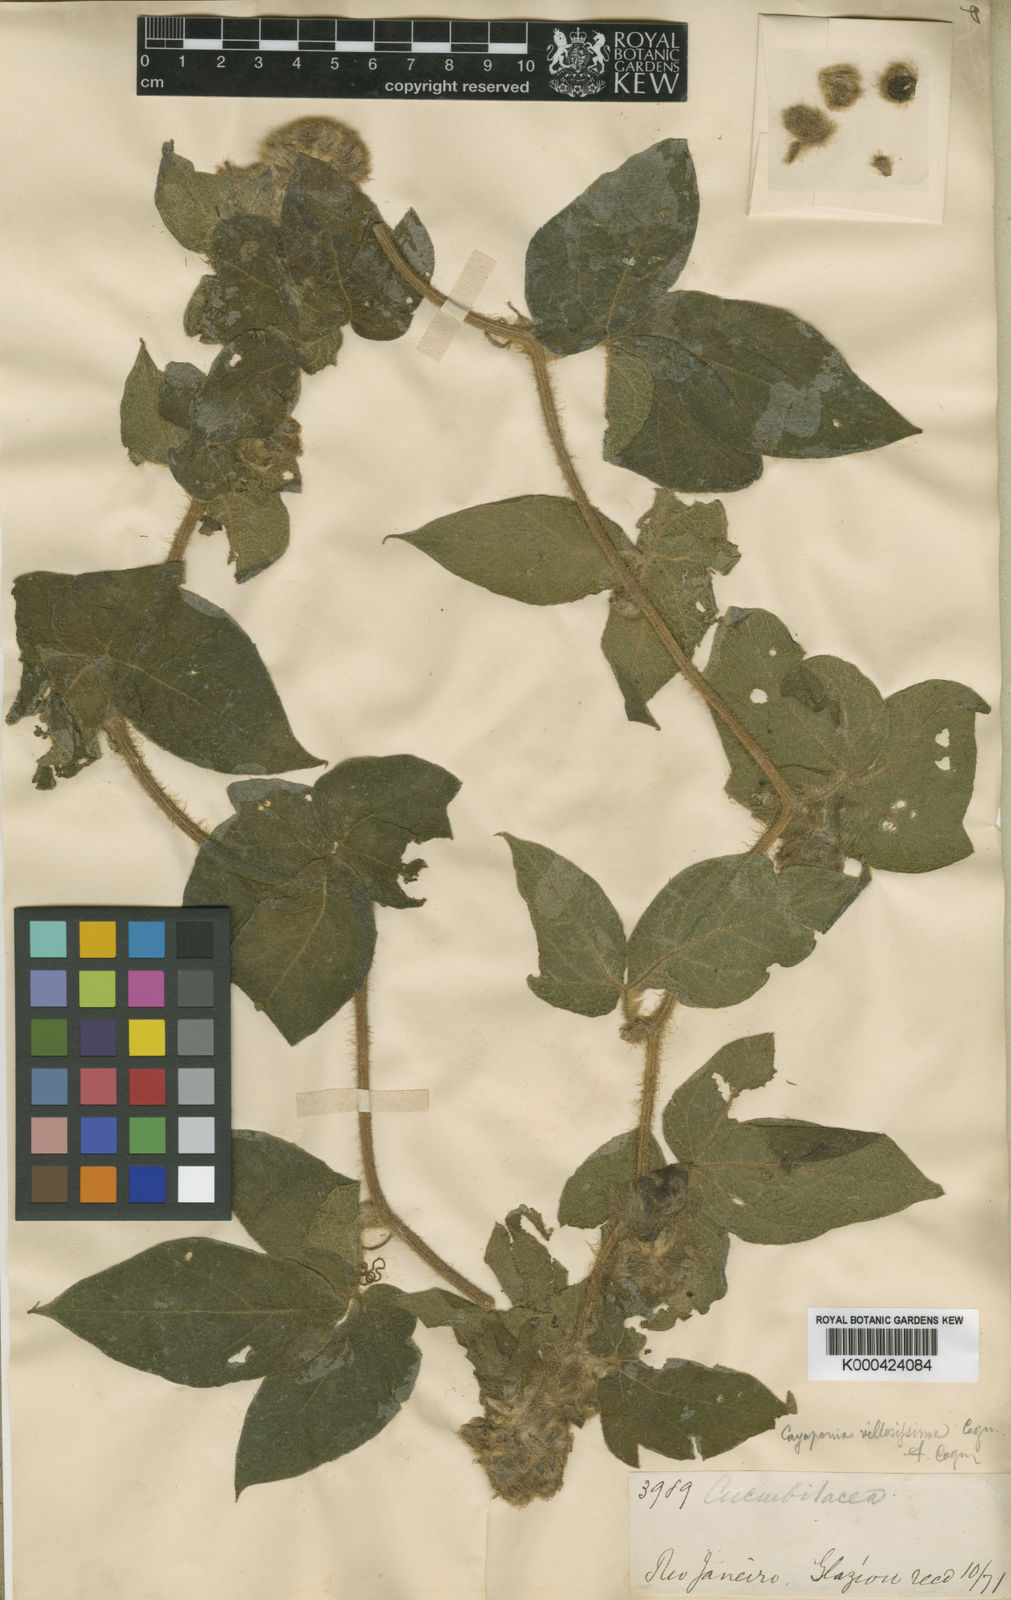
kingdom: Plantae
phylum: Tracheophyta
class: Magnoliopsida
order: Cucurbitales
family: Cucurbitaceae
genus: Cayaponia
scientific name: Cayaponia villosissima
